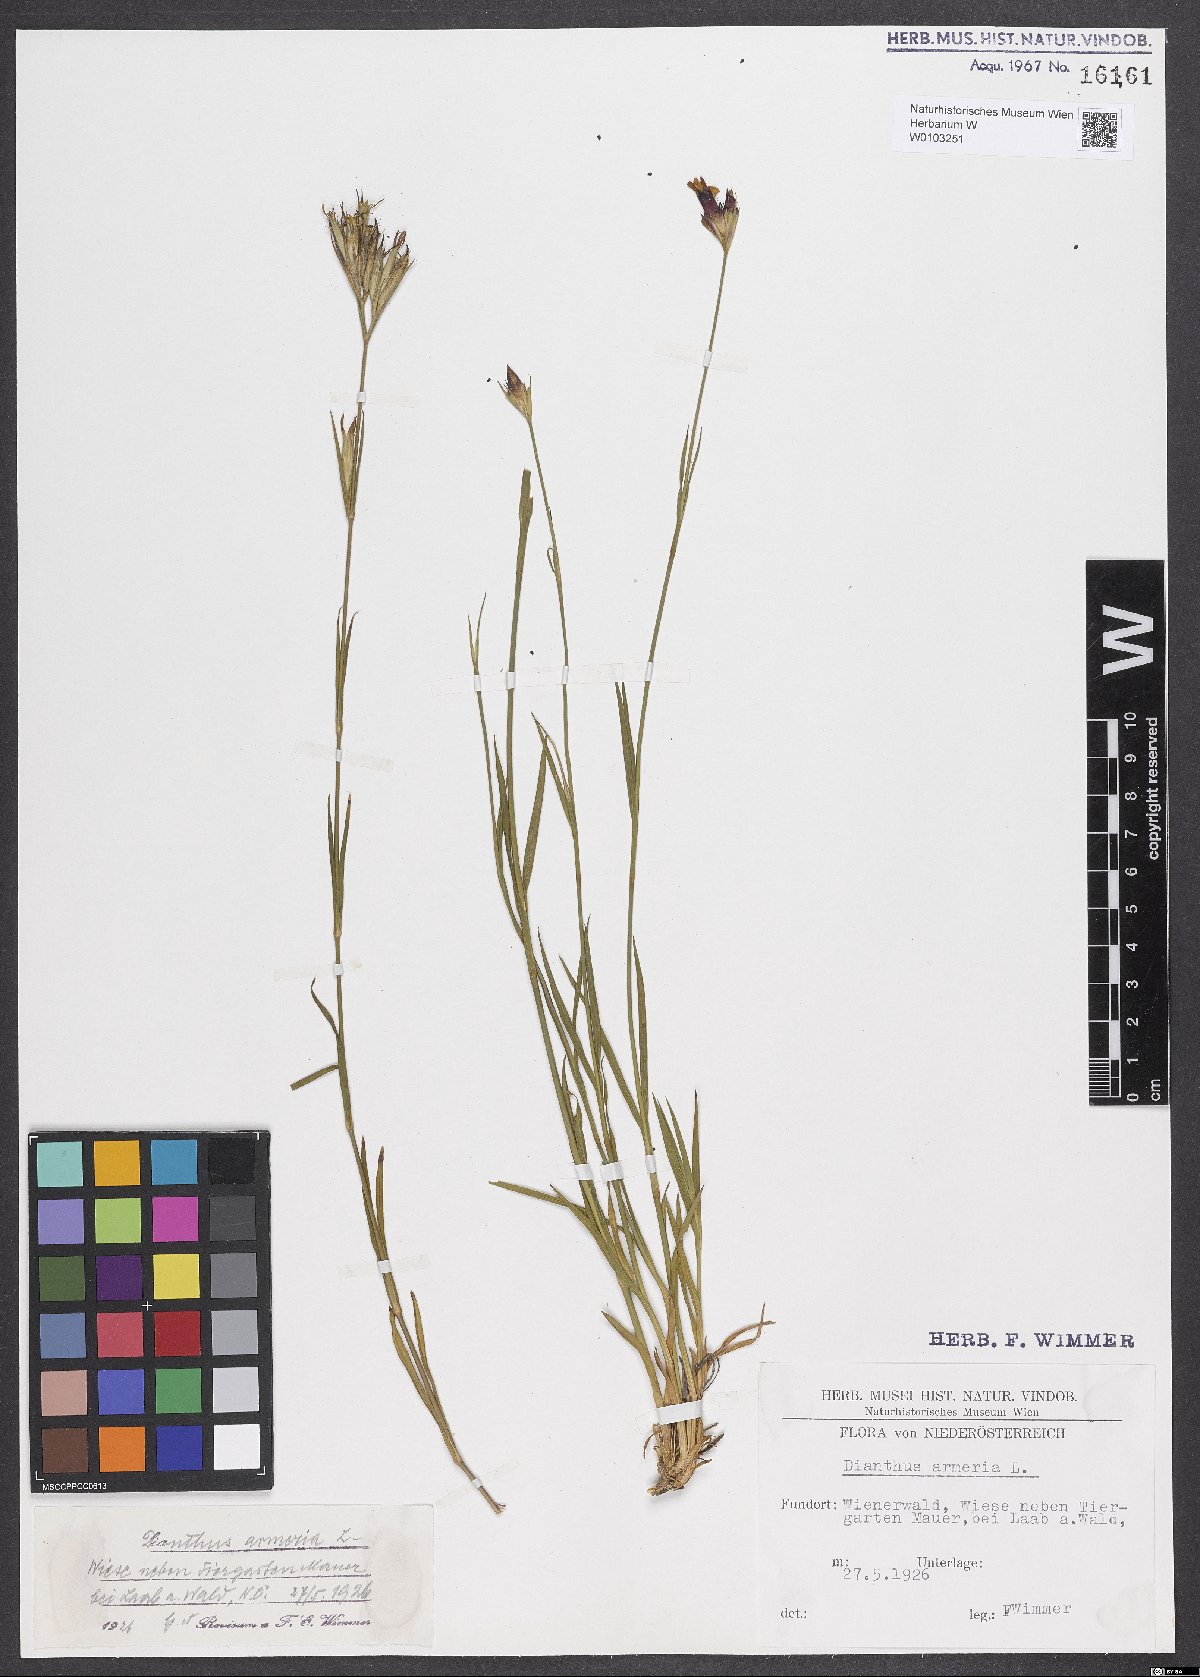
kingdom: Plantae
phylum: Tracheophyta
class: Magnoliopsida
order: Caryophyllales
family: Caryophyllaceae
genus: Dianthus
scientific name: Dianthus armeria
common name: Deptford pink
